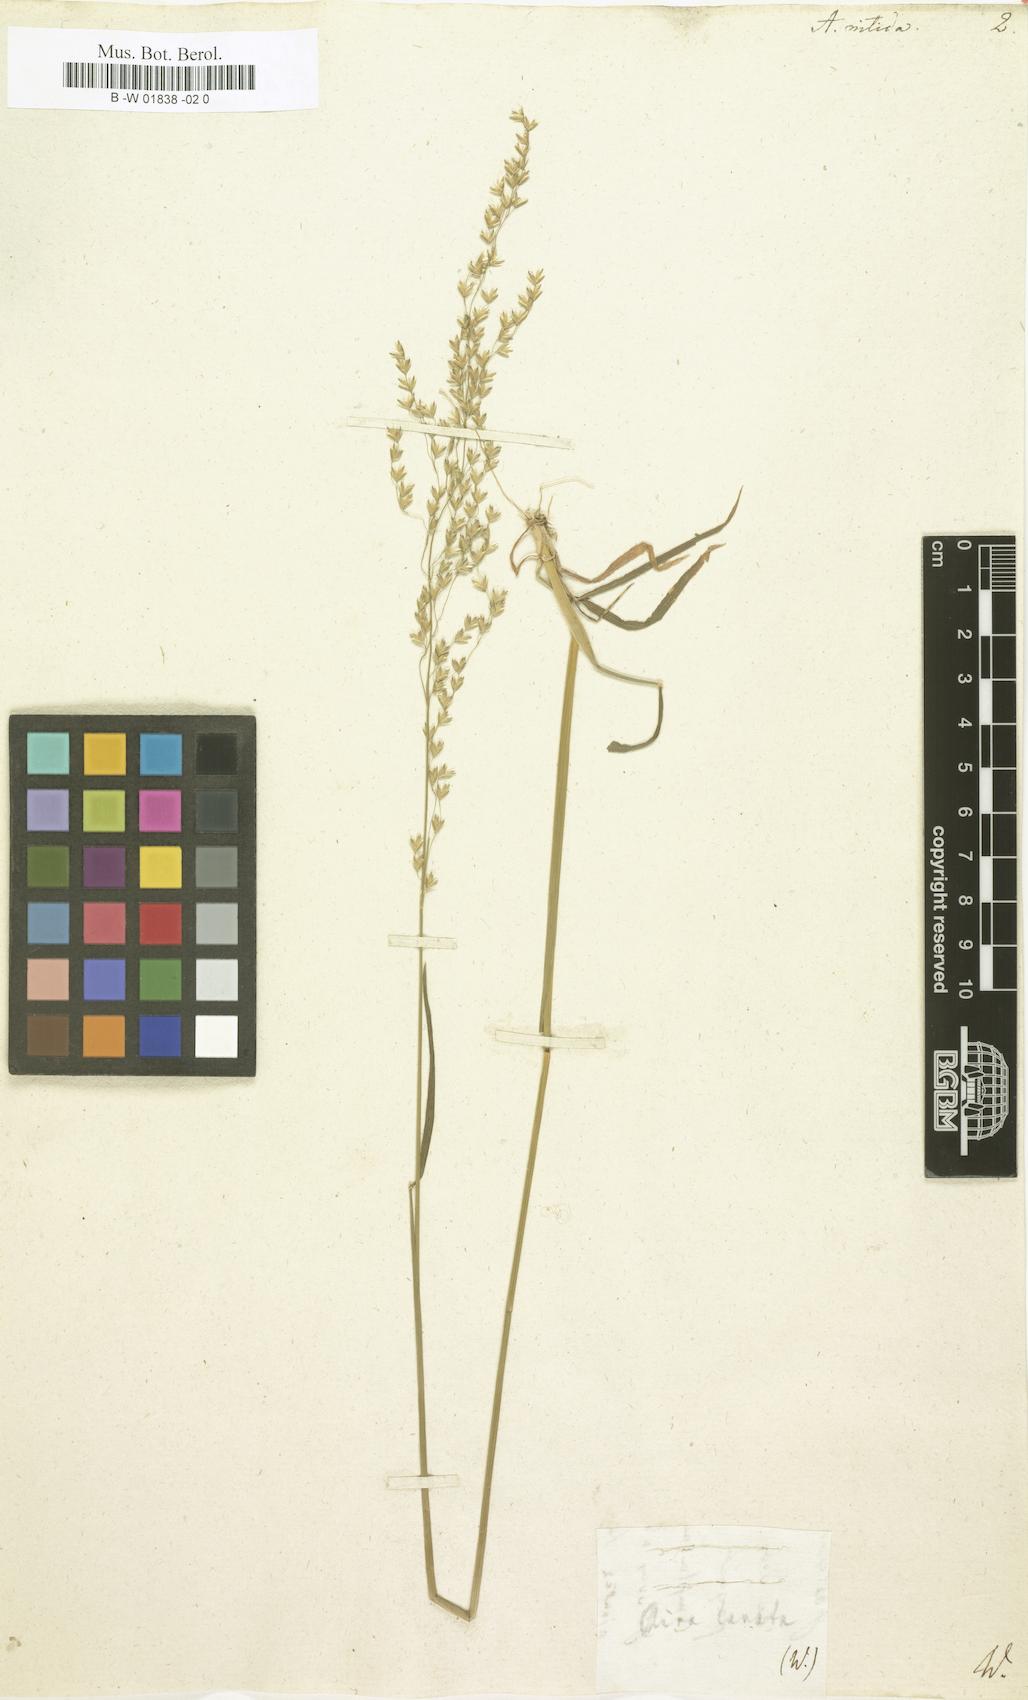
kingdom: Plantae
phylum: Tracheophyta
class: Liliopsida
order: Poales
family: Poaceae
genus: Aira
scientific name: Aira nitida
